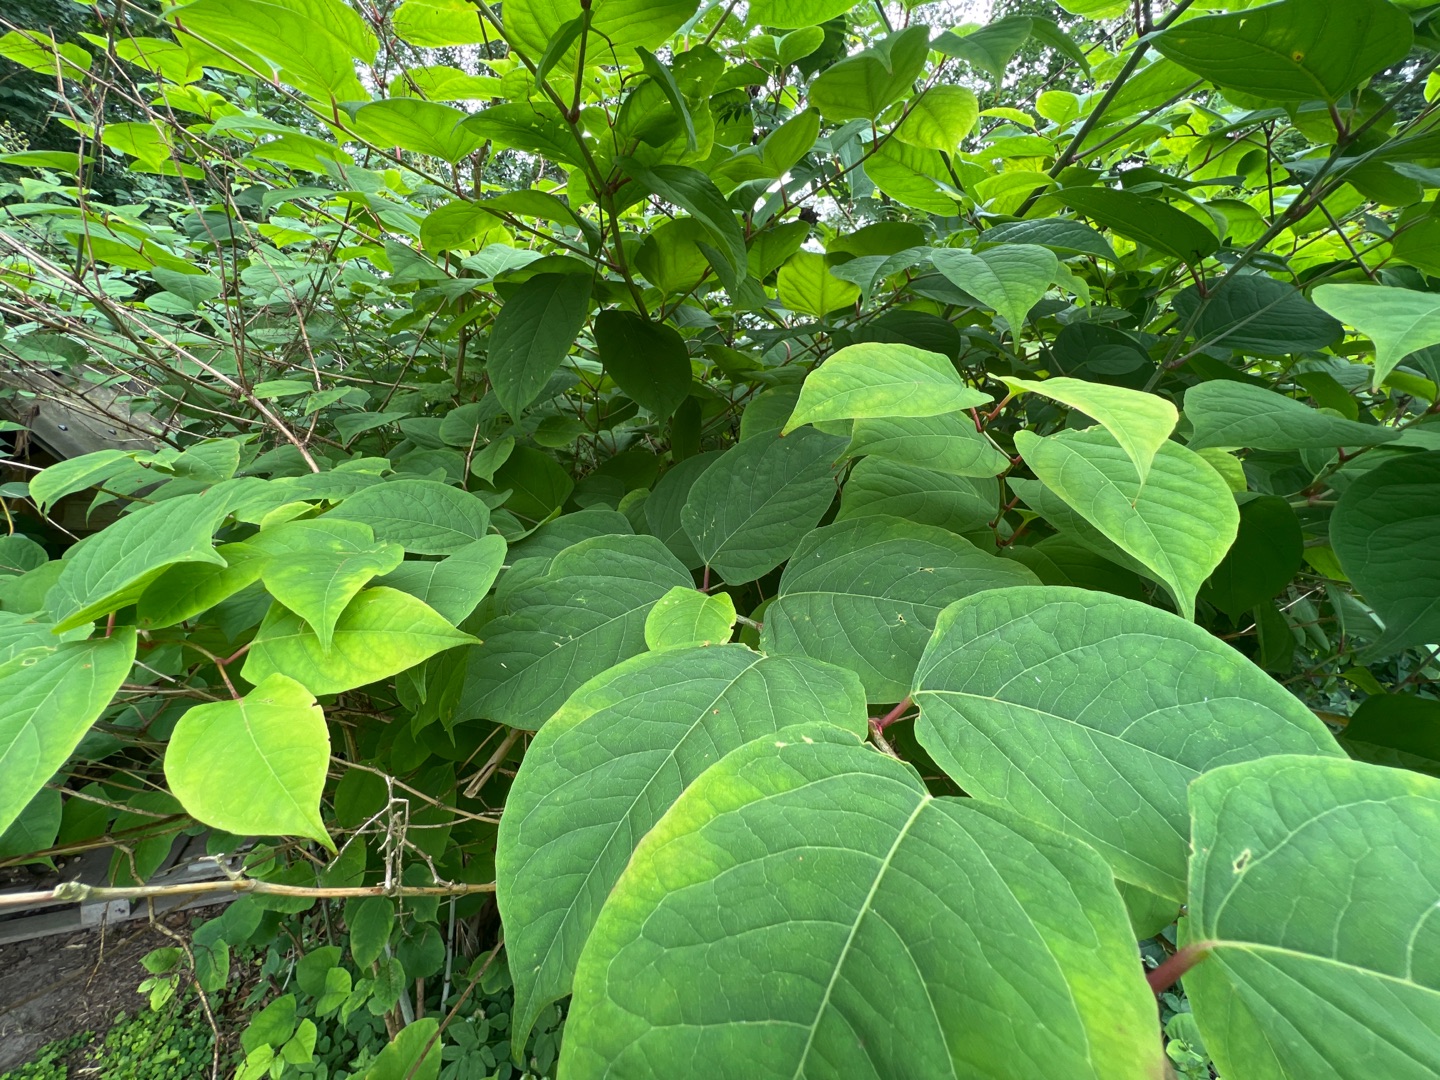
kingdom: Plantae
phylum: Tracheophyta
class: Magnoliopsida
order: Caryophyllales
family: Polygonaceae
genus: Reynoutria
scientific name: Reynoutria japonica
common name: Japan-pileurt
